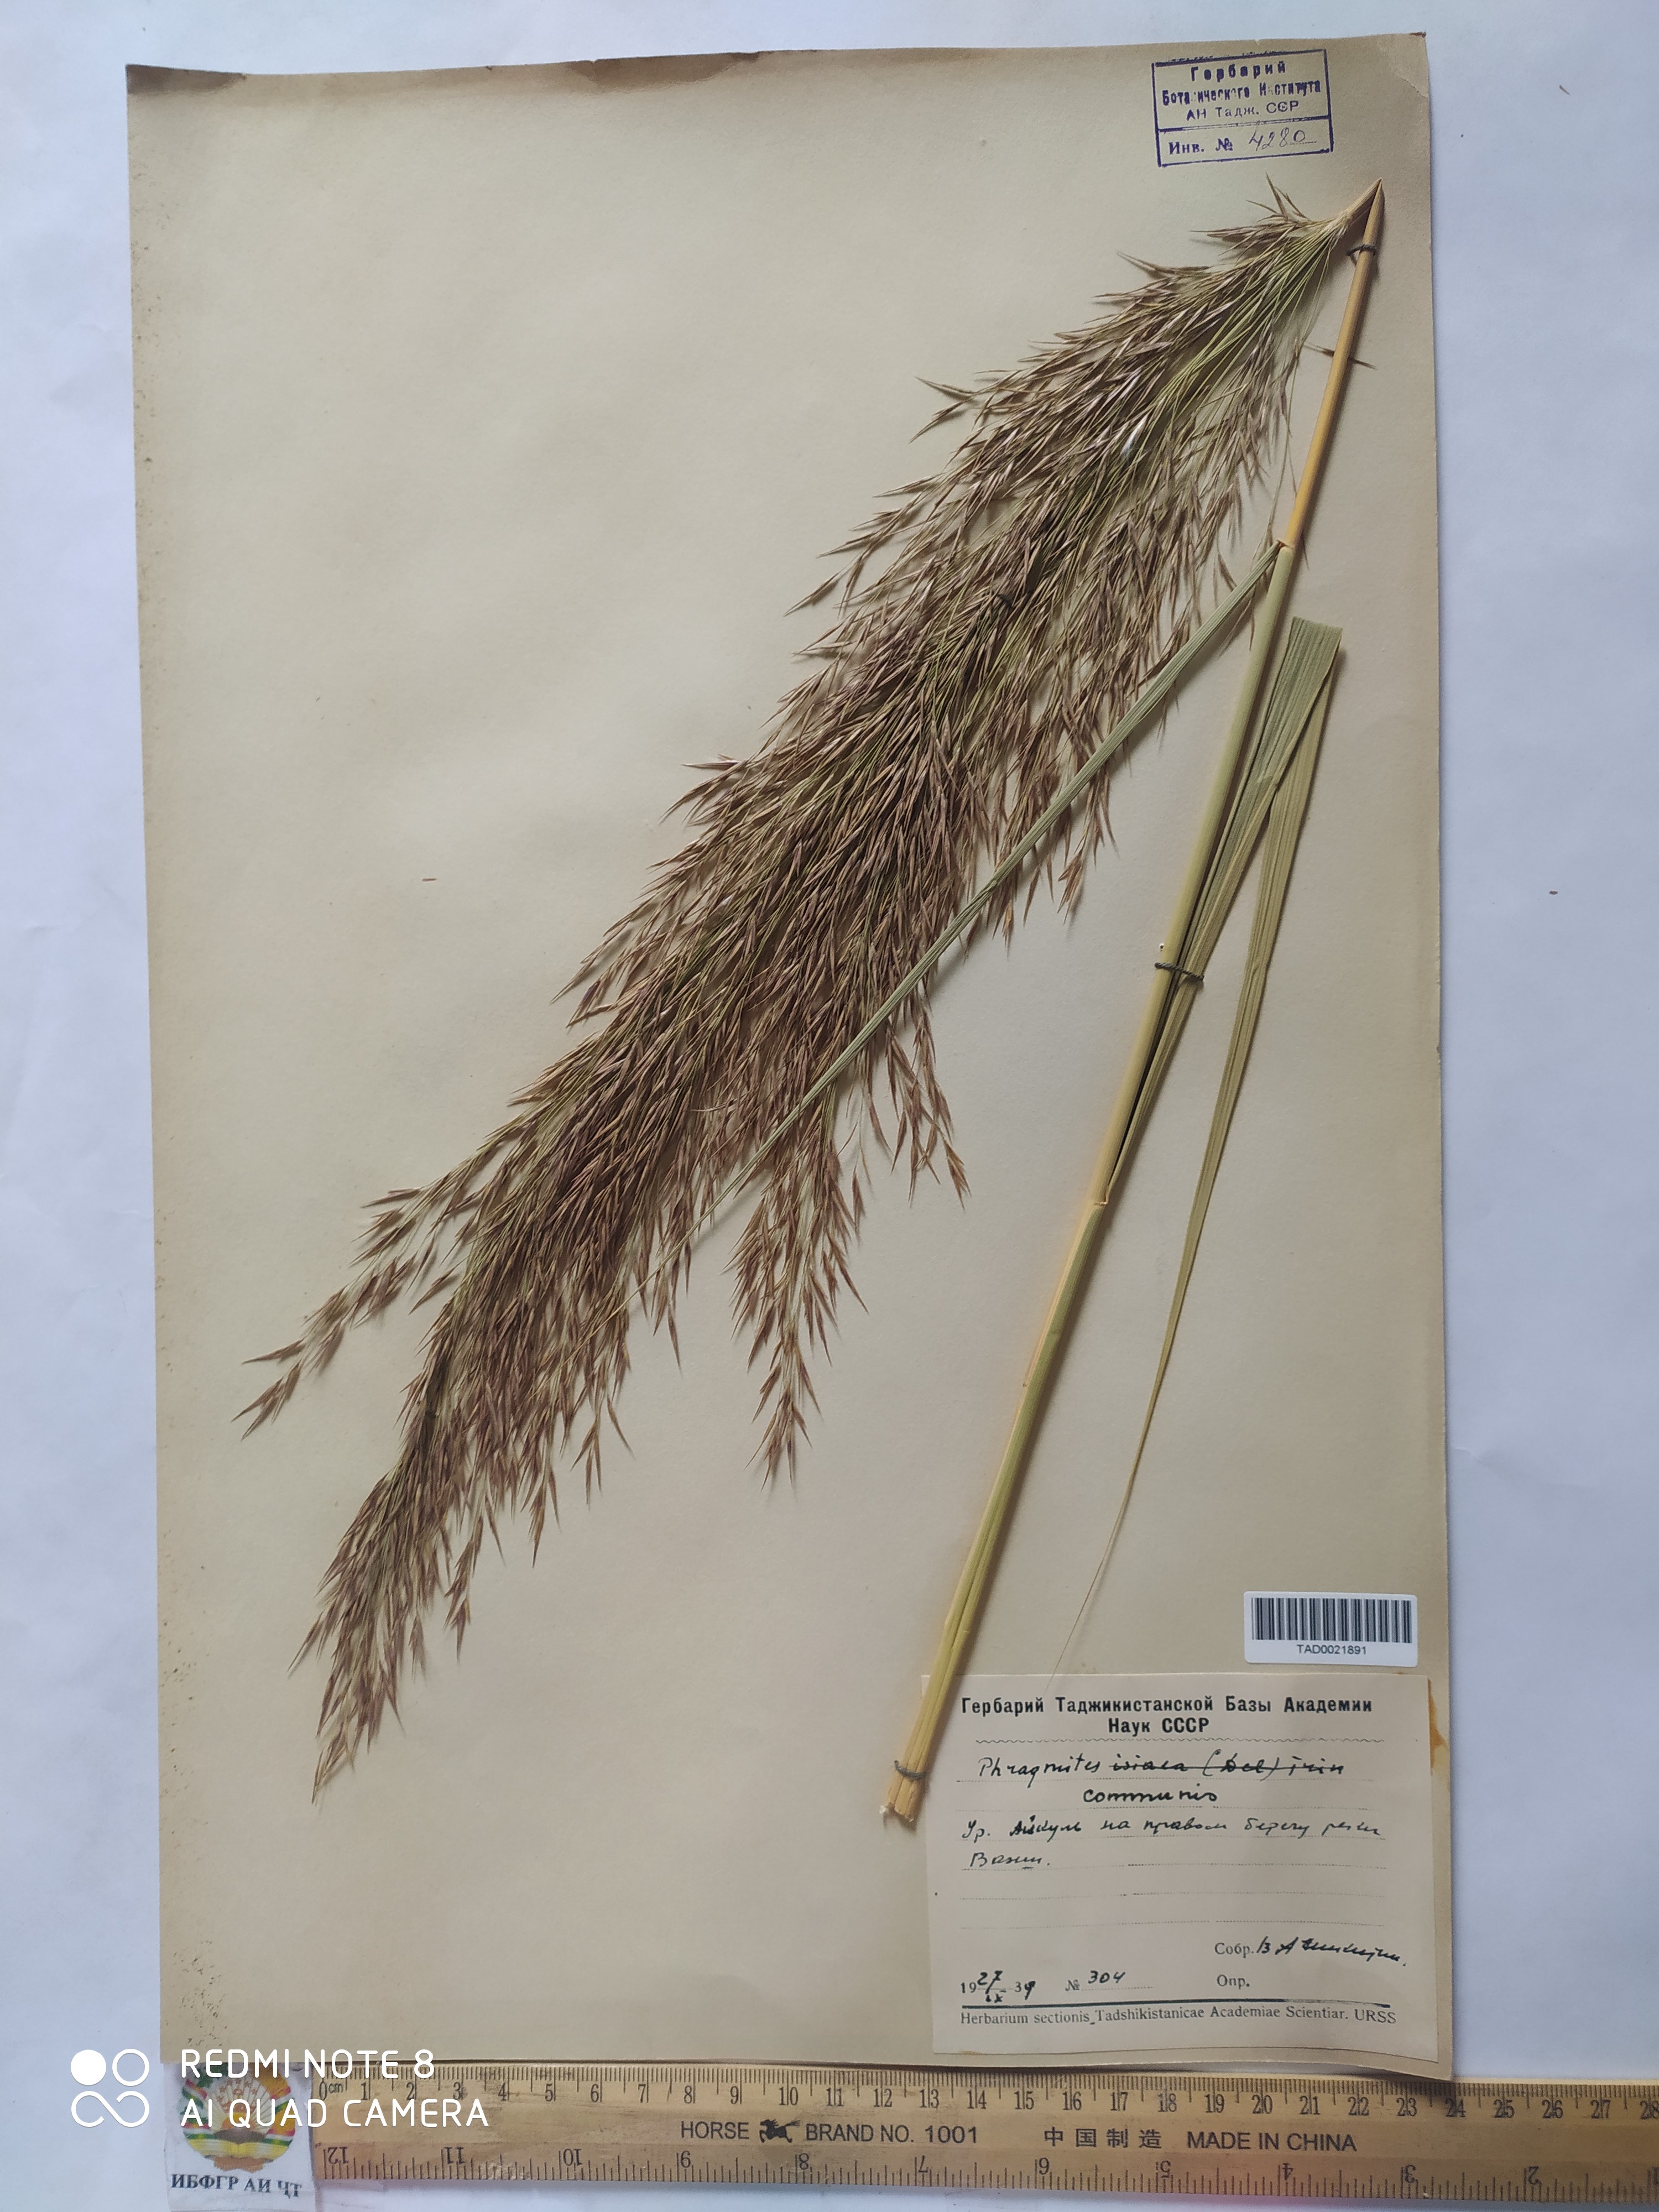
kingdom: Plantae
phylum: Tracheophyta
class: Liliopsida
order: Poales
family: Poaceae
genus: Phragmites
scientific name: Phragmites australis
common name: Common reed
